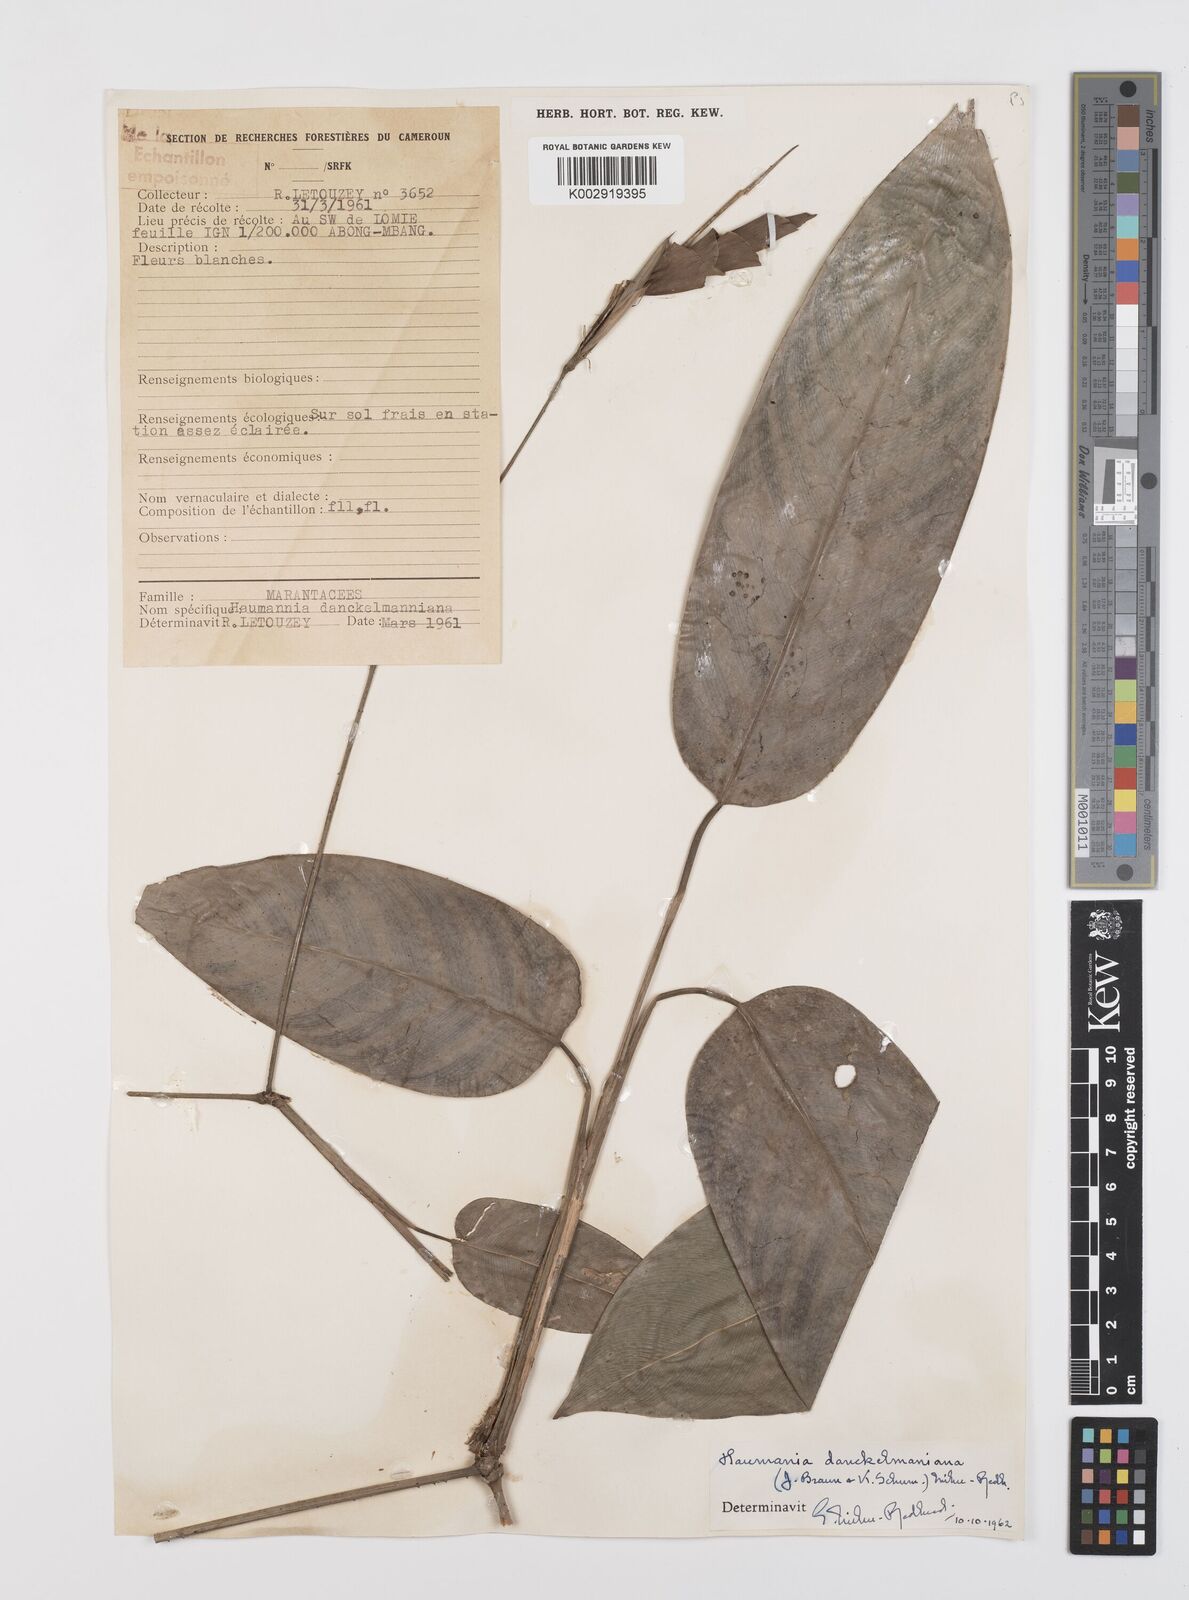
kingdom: Plantae
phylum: Tracheophyta
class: Liliopsida
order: Zingiberales
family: Marantaceae
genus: Haumania
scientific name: Haumania danckelmaniana
